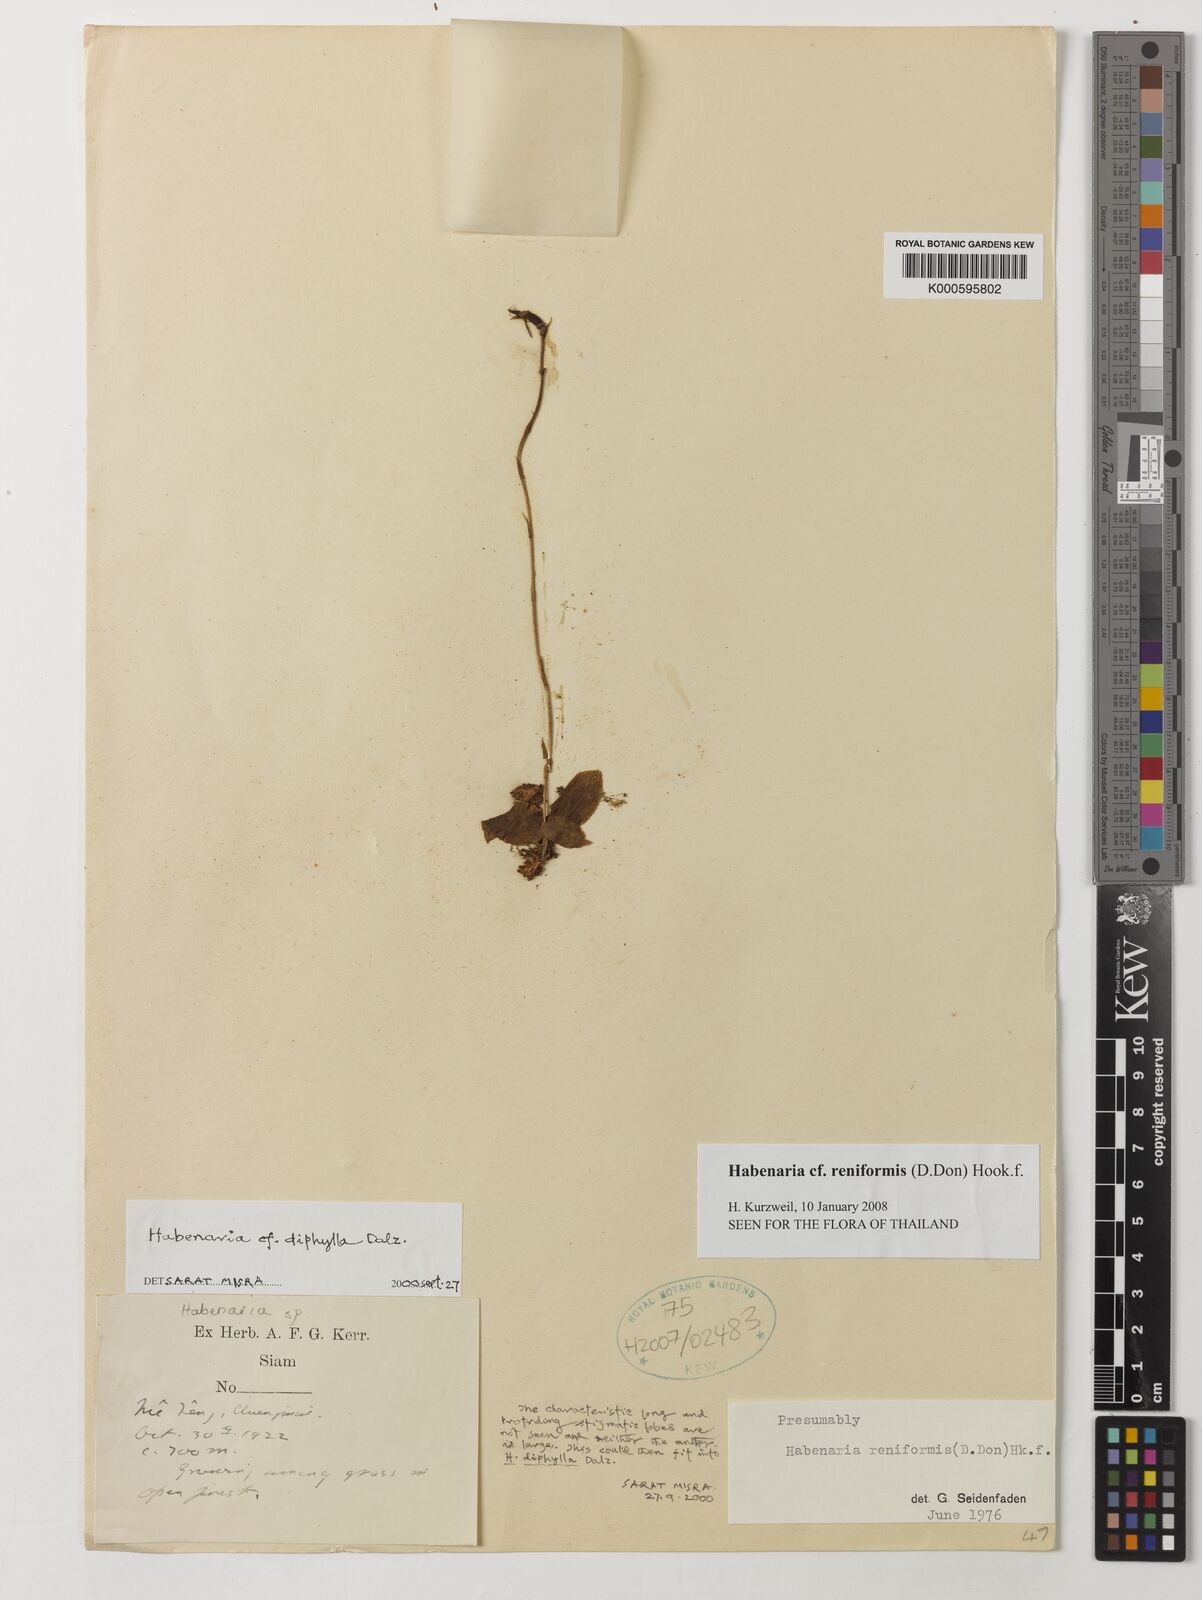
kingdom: Plantae
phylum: Tracheophyta
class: Liliopsida
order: Asparagales
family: Orchidaceae
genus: Habenaria
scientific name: Habenaria reniformis
